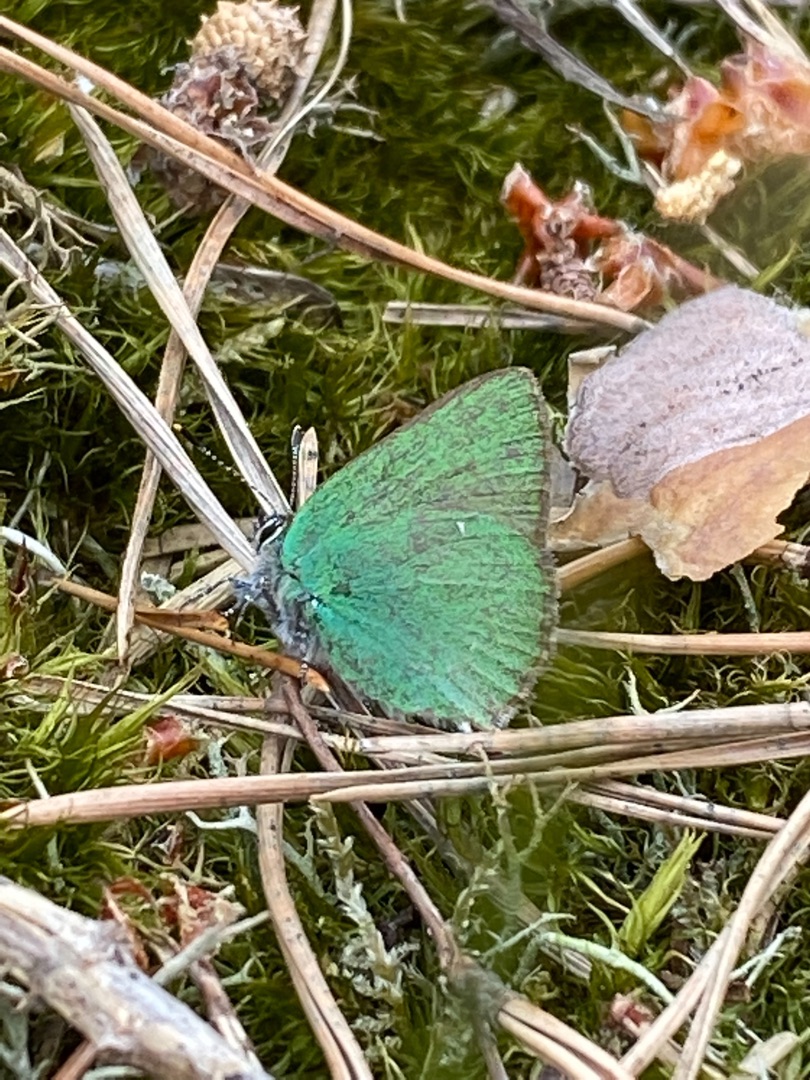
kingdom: Animalia
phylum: Arthropoda
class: Insecta
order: Lepidoptera
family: Lycaenidae
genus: Callophrys
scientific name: Callophrys rubi
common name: Grøn busksommerfugl
